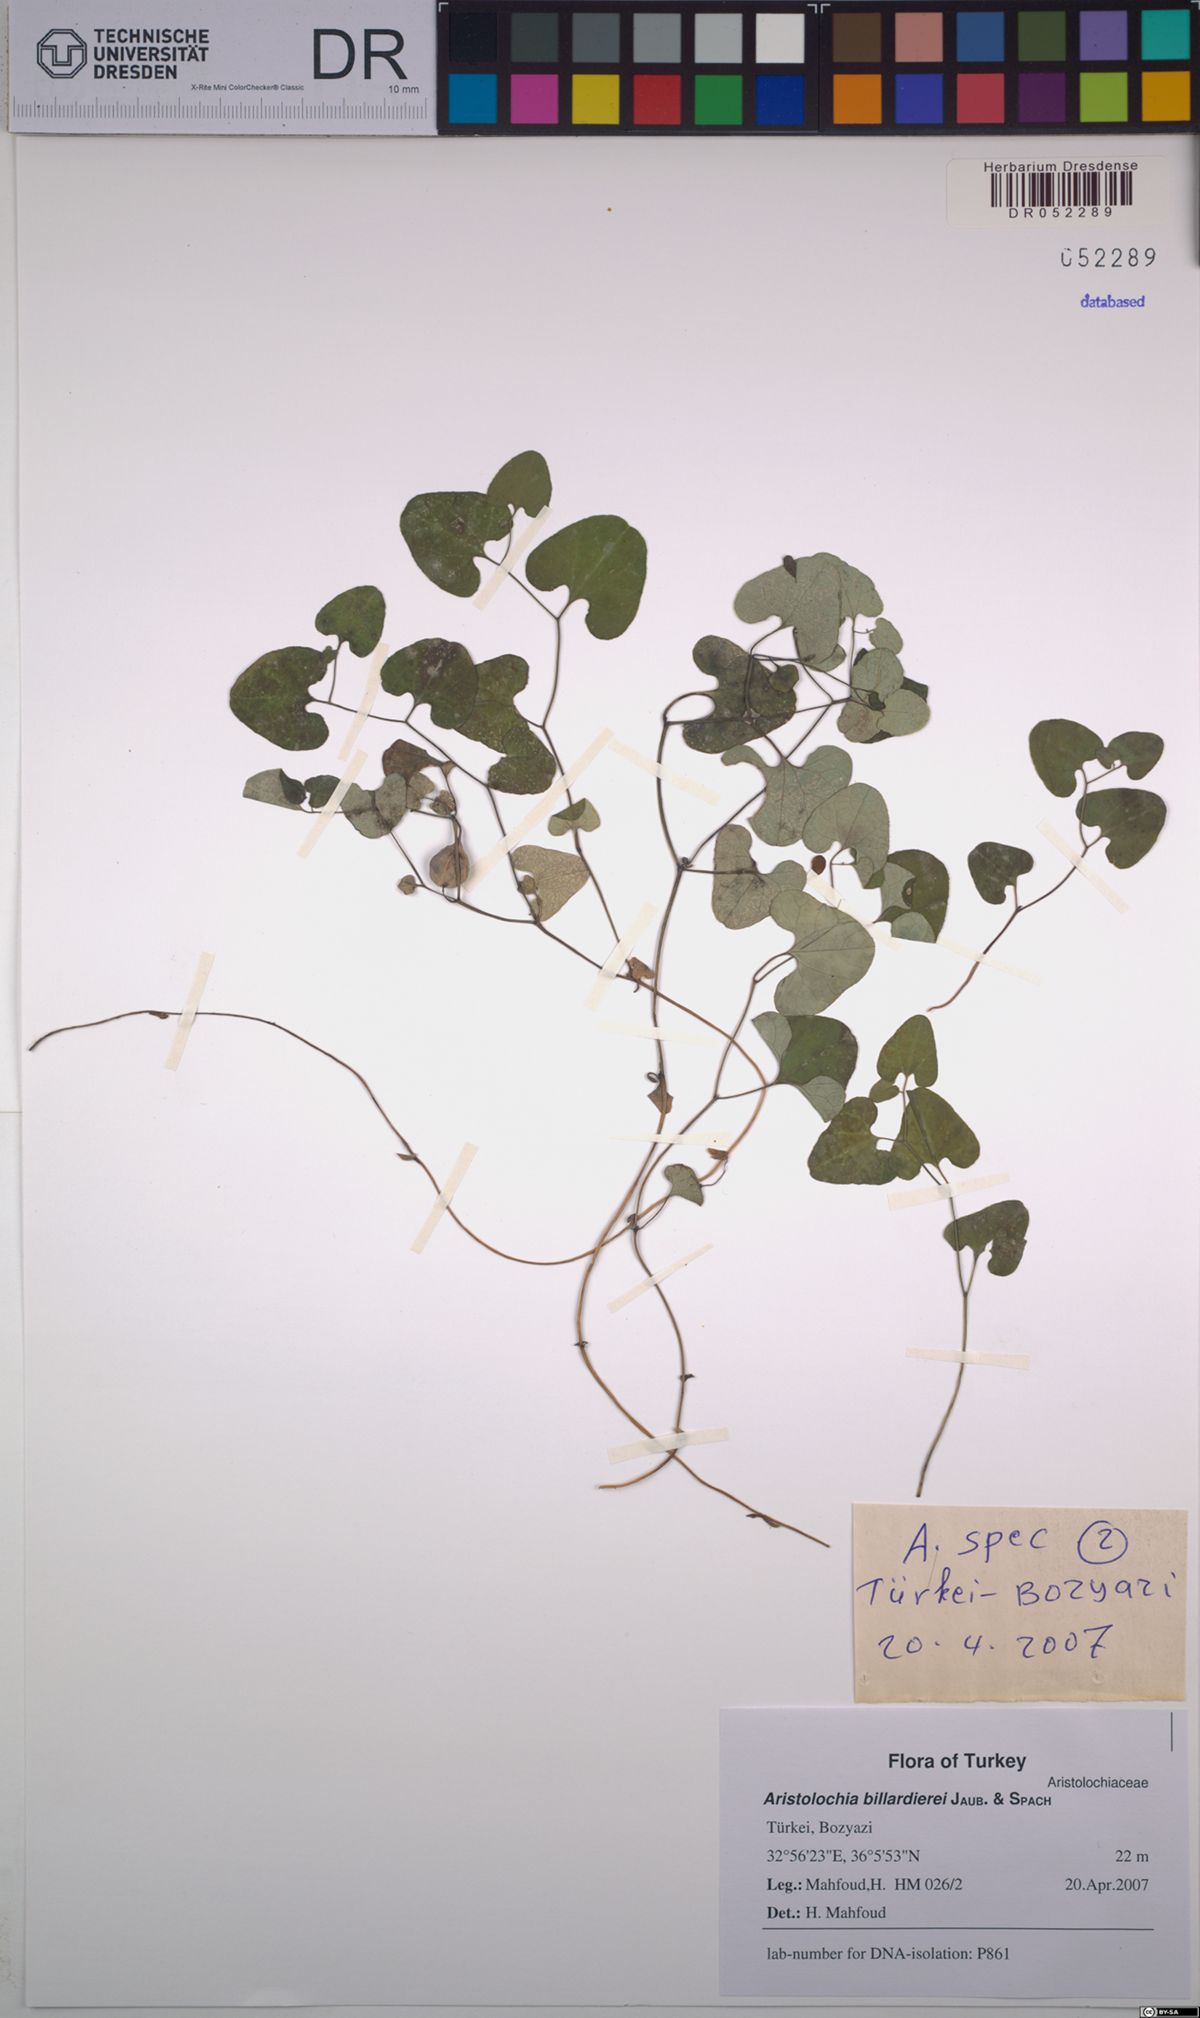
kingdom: Plantae
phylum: Tracheophyta
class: Magnoliopsida
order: Piperales
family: Aristolochiaceae
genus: Aristolochia
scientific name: Aristolochia billardieri
